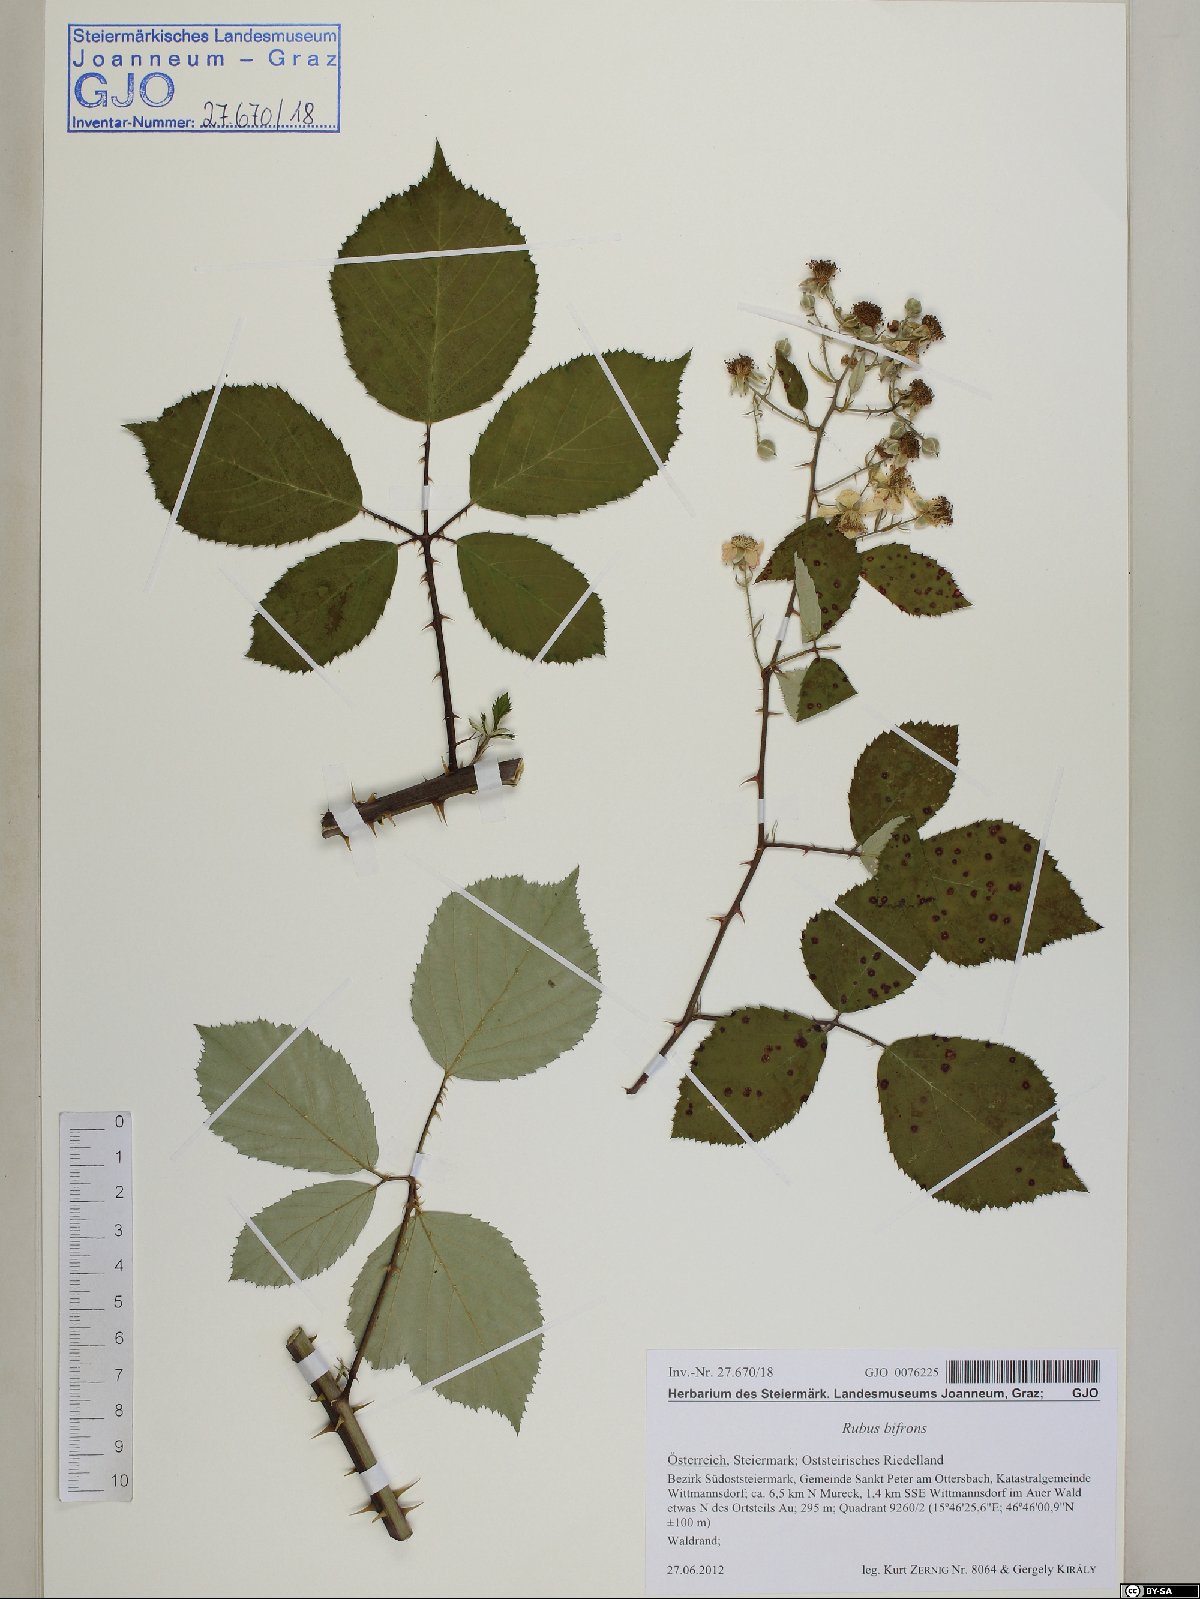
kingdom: Plantae
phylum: Tracheophyta
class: Magnoliopsida
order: Rosales
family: Rosaceae
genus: Rubus
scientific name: Rubus bifrons
